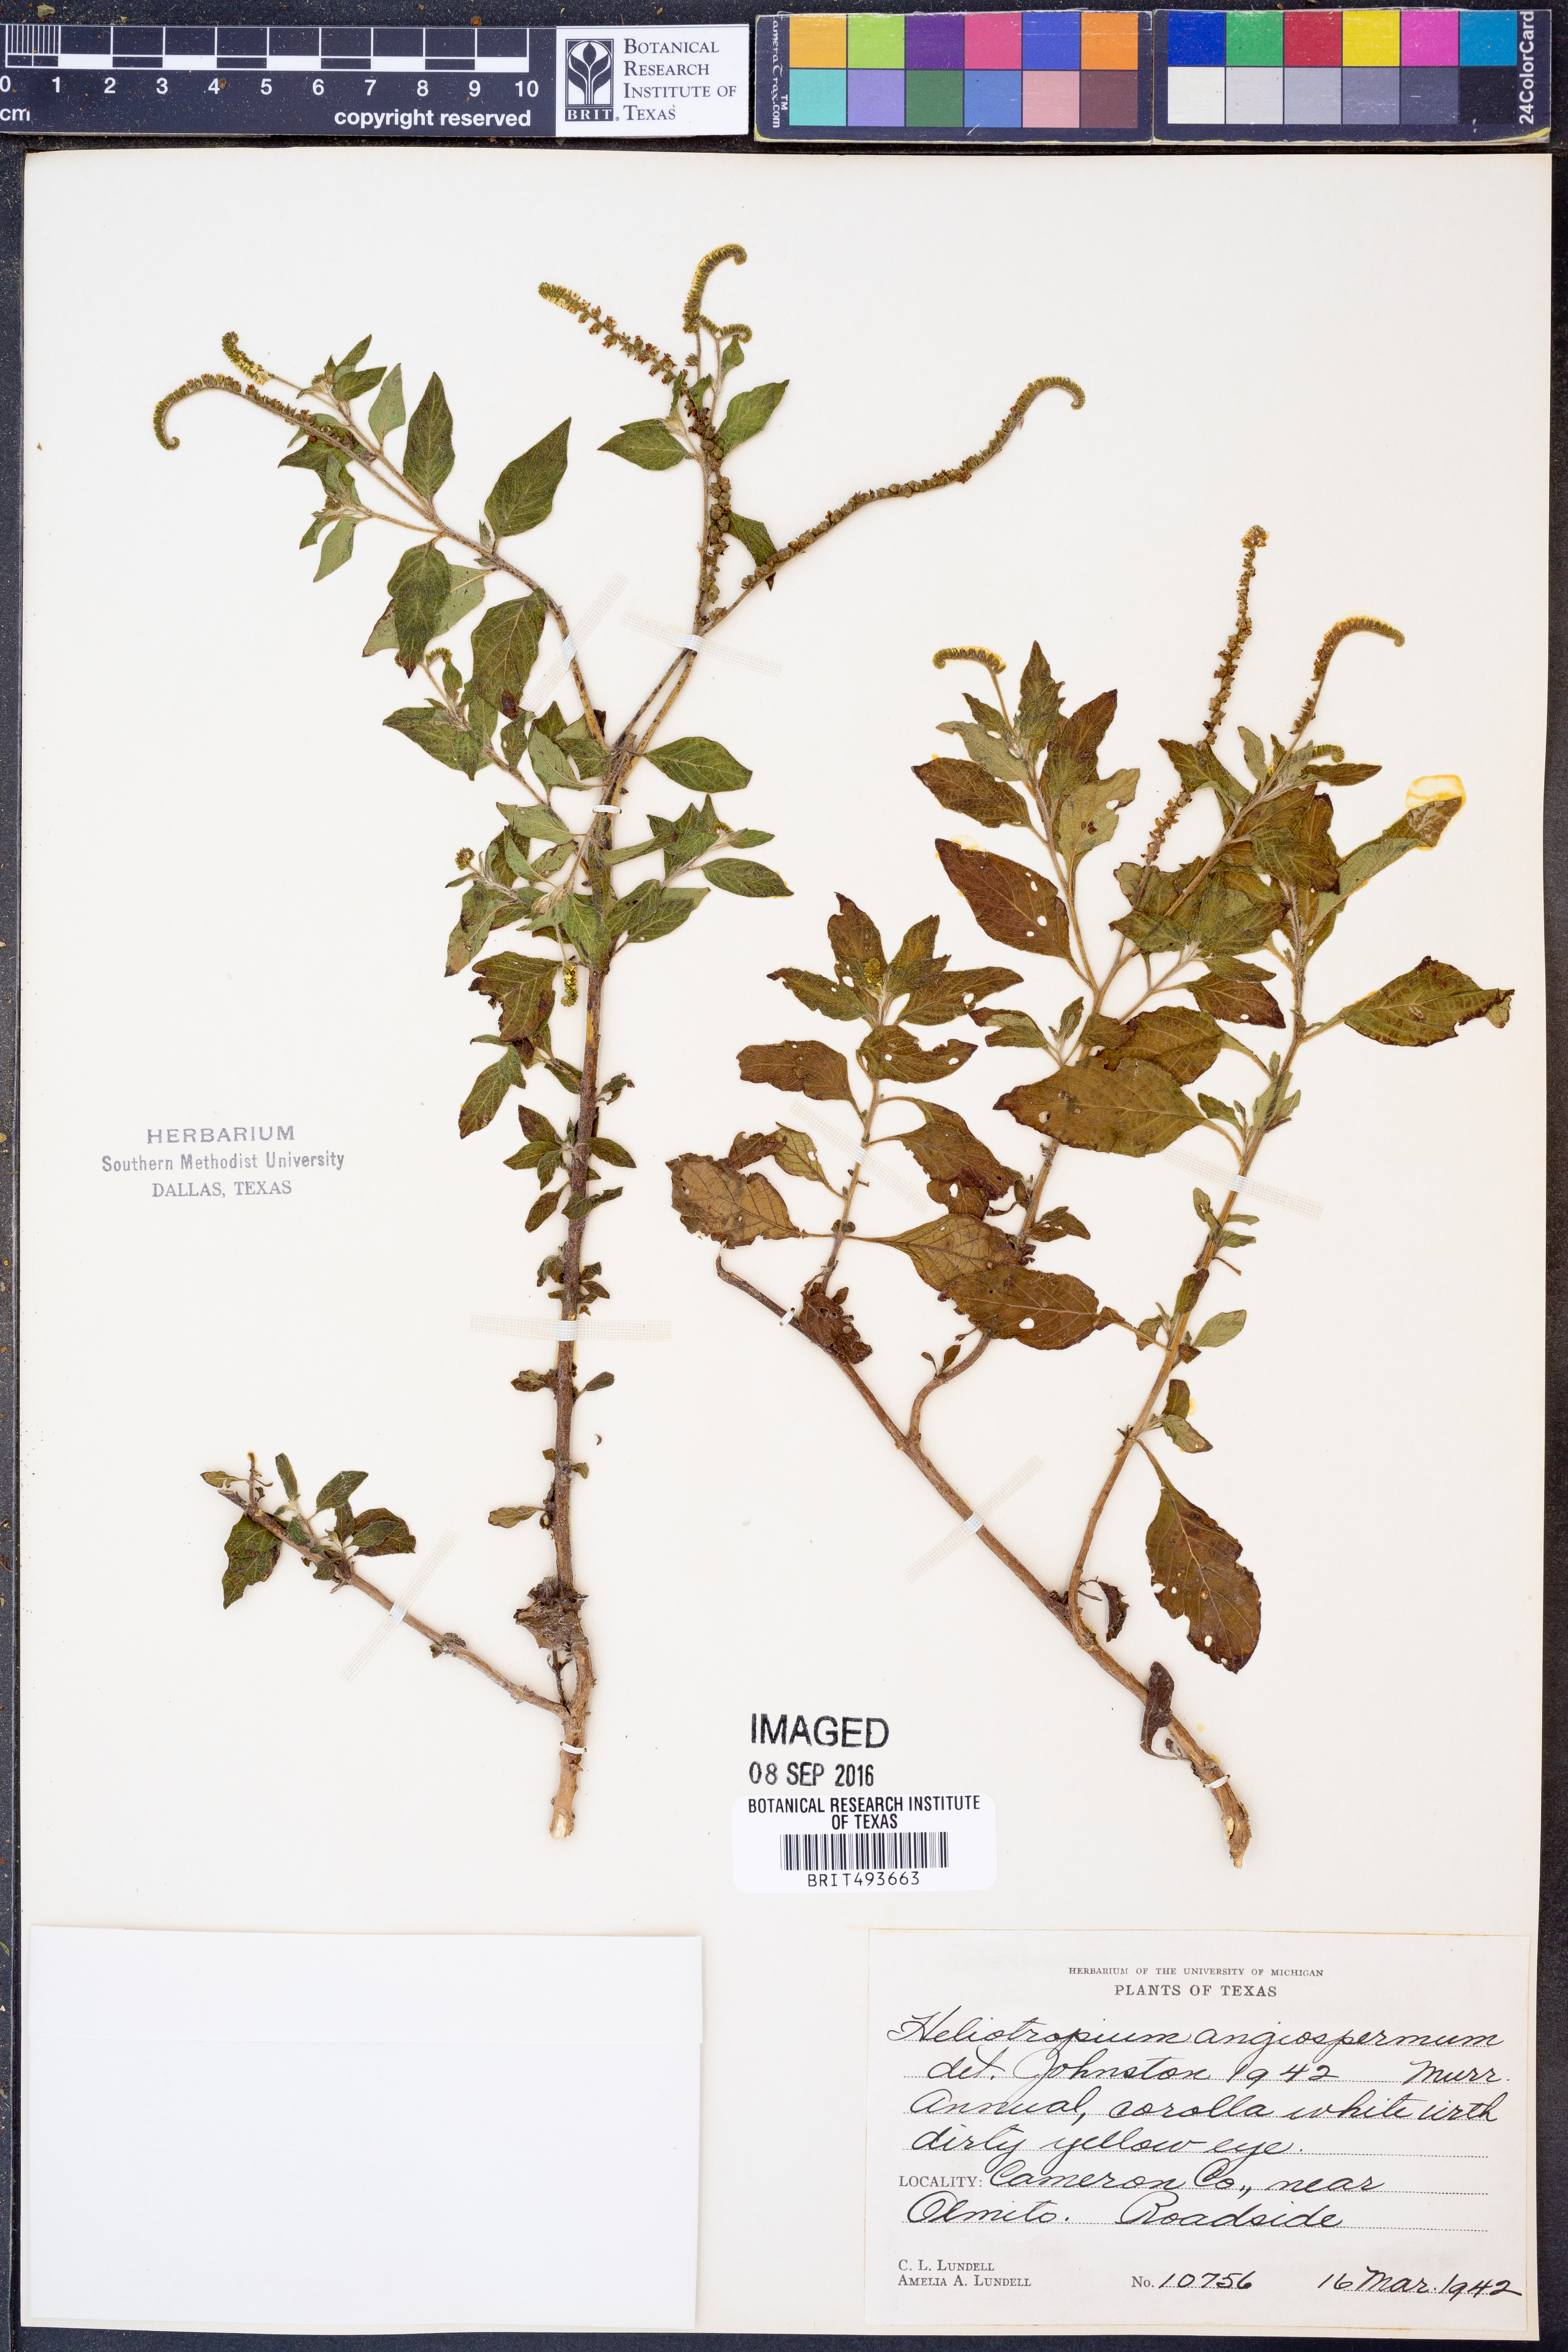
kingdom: Plantae
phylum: Tracheophyta
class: Magnoliopsida
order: Boraginales
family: Heliotropiaceae
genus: Heliotropium
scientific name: Heliotropium angiospermum
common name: Eye bright
